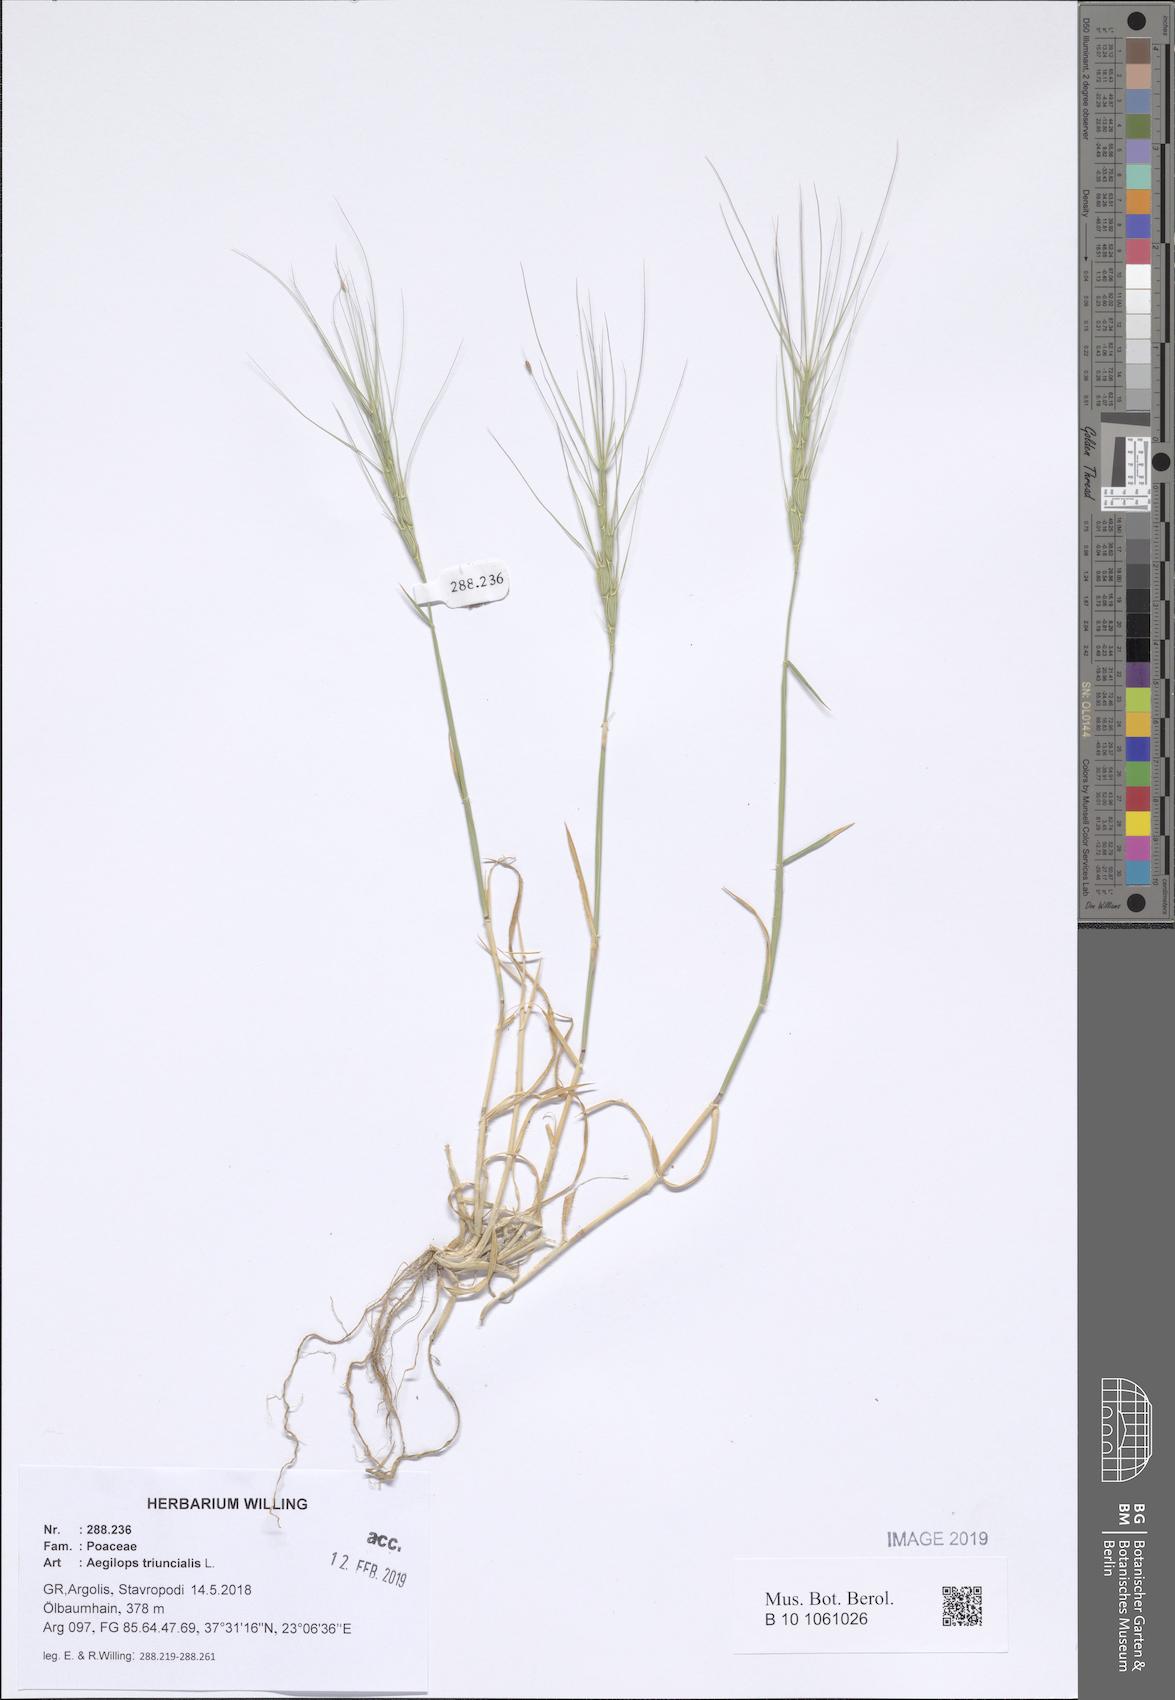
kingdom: Plantae
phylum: Tracheophyta
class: Liliopsida
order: Poales
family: Poaceae
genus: Aegilops
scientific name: Aegilops triuncialis
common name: Barb goat grass
